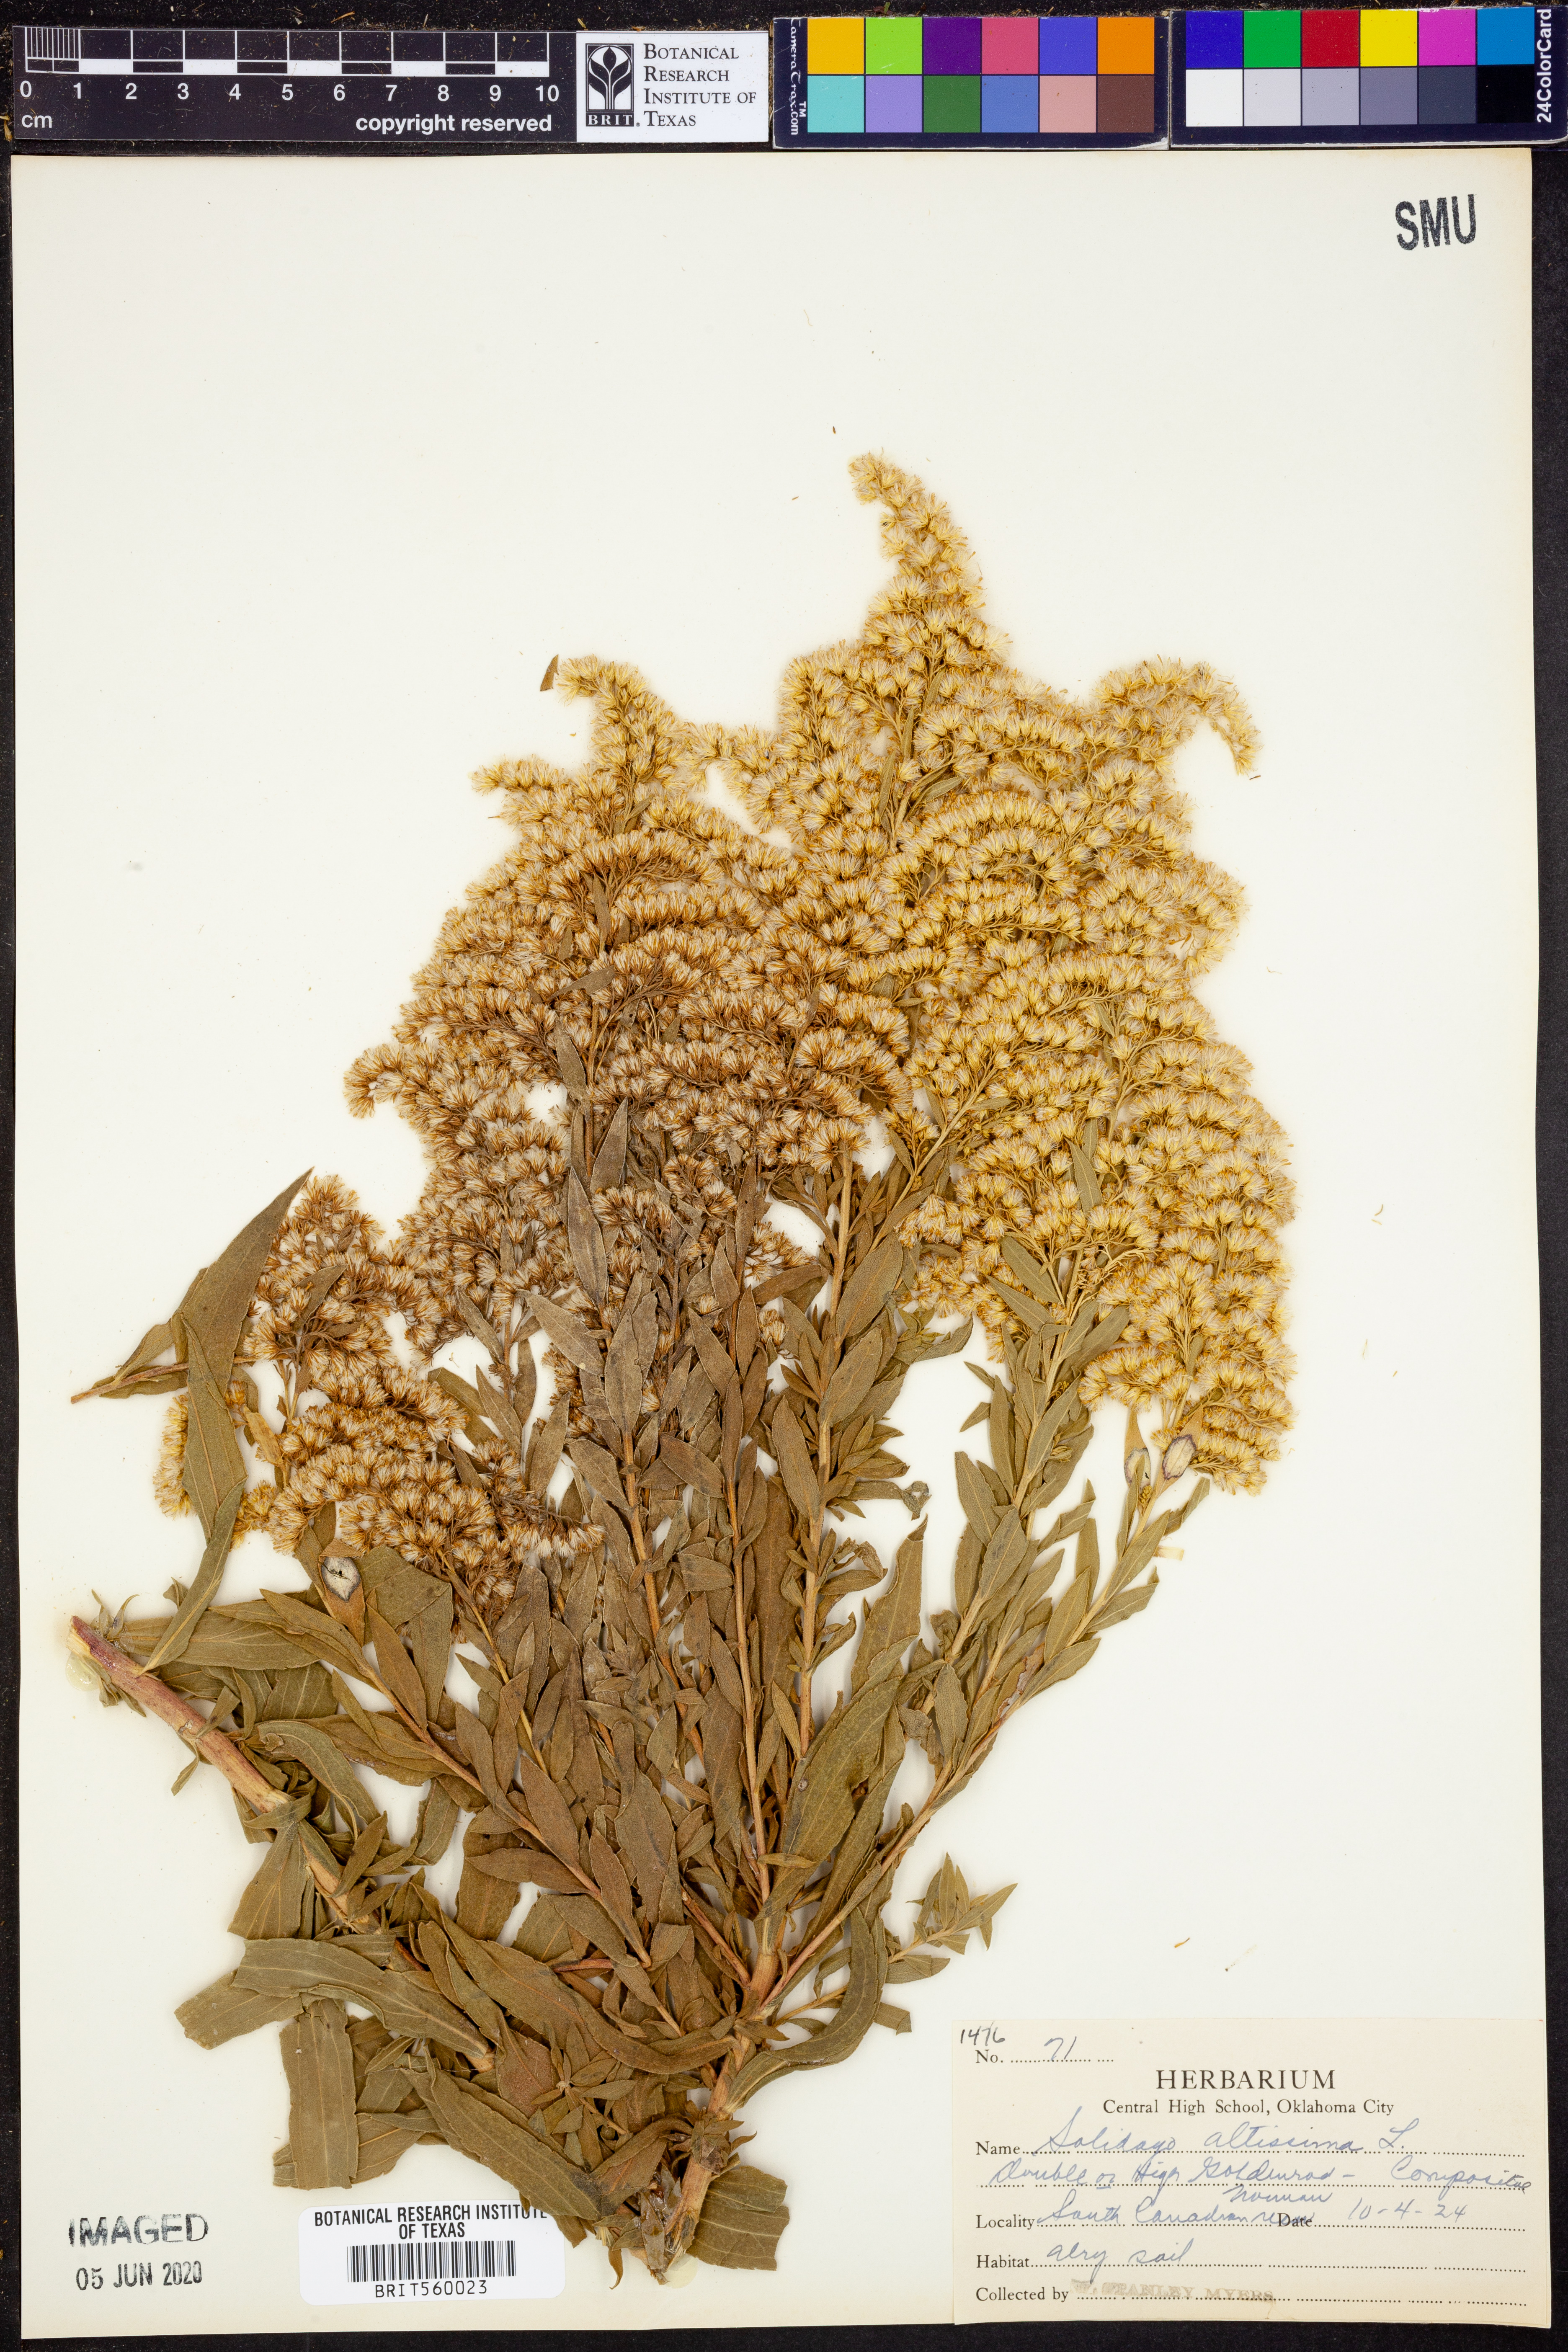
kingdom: Plantae
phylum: Tracheophyta
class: Magnoliopsida
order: Asterales
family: Asteraceae
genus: Solidago
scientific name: Solidago altissima
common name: Late goldenrod
